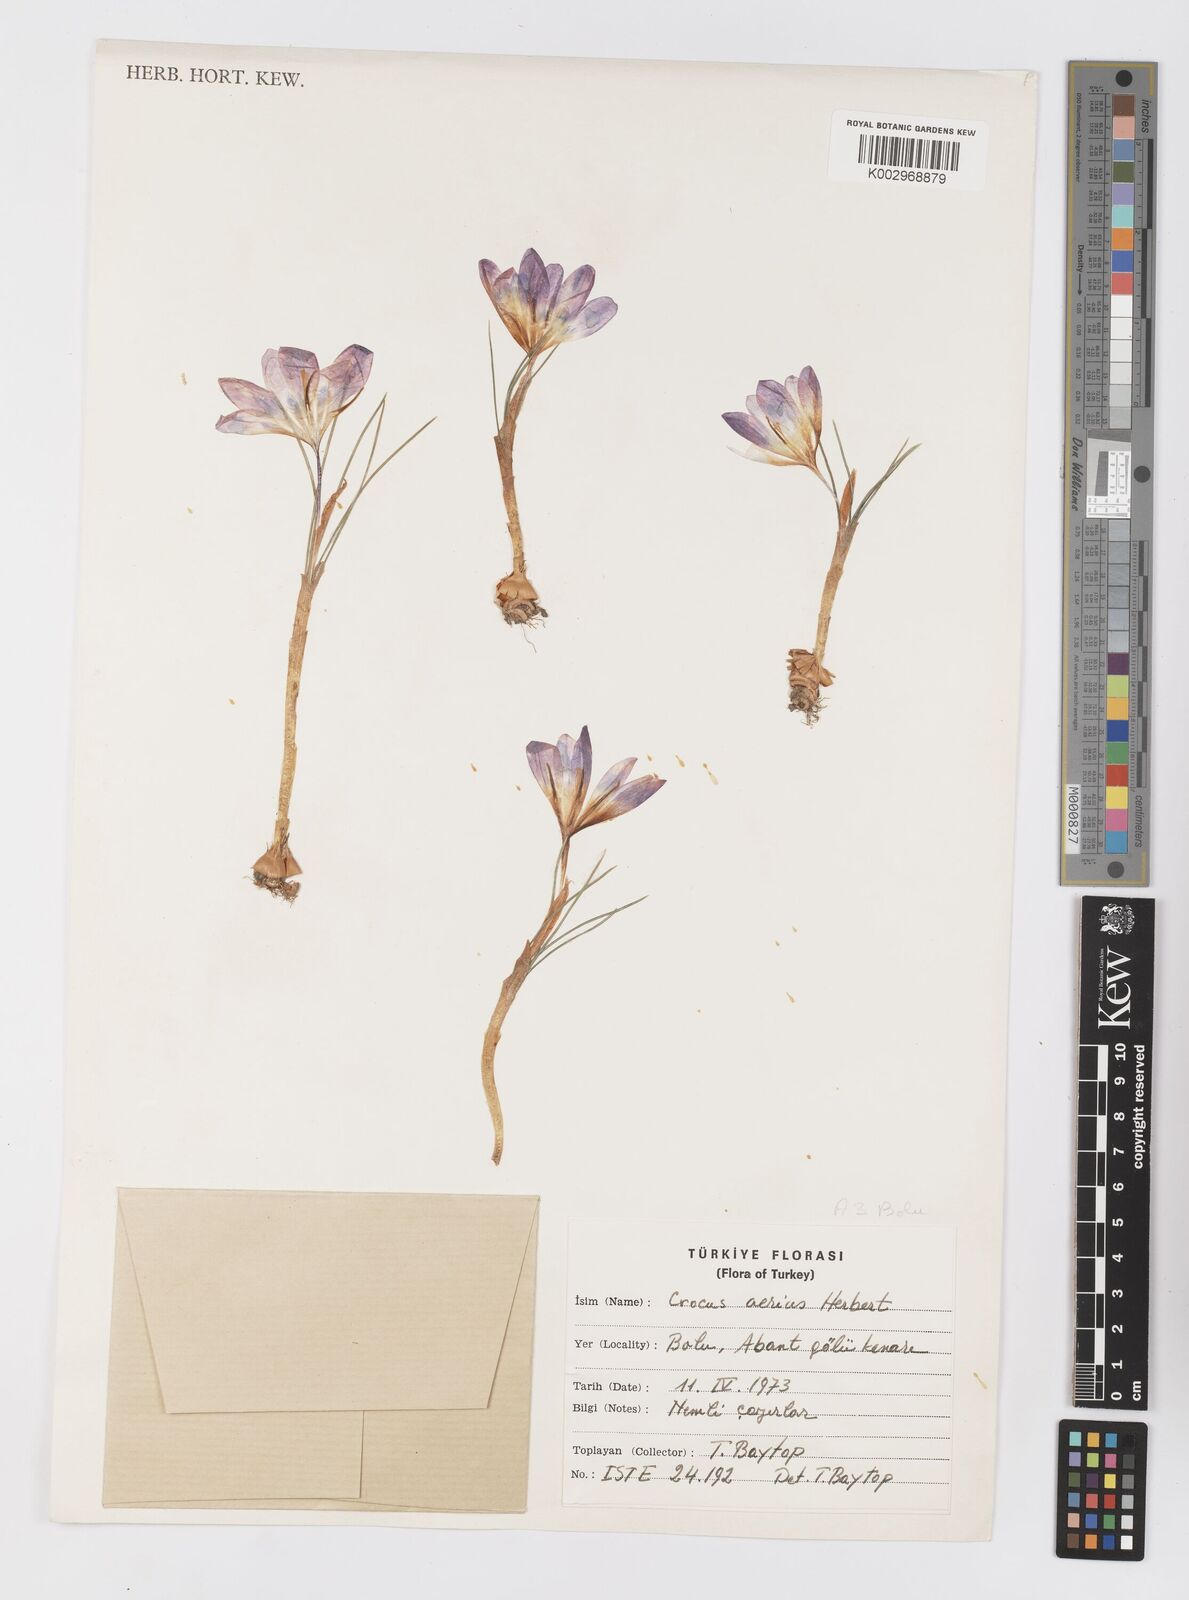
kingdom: Plantae
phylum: Tracheophyta
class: Liliopsida
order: Asparagales
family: Iridaceae
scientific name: Iridaceae
